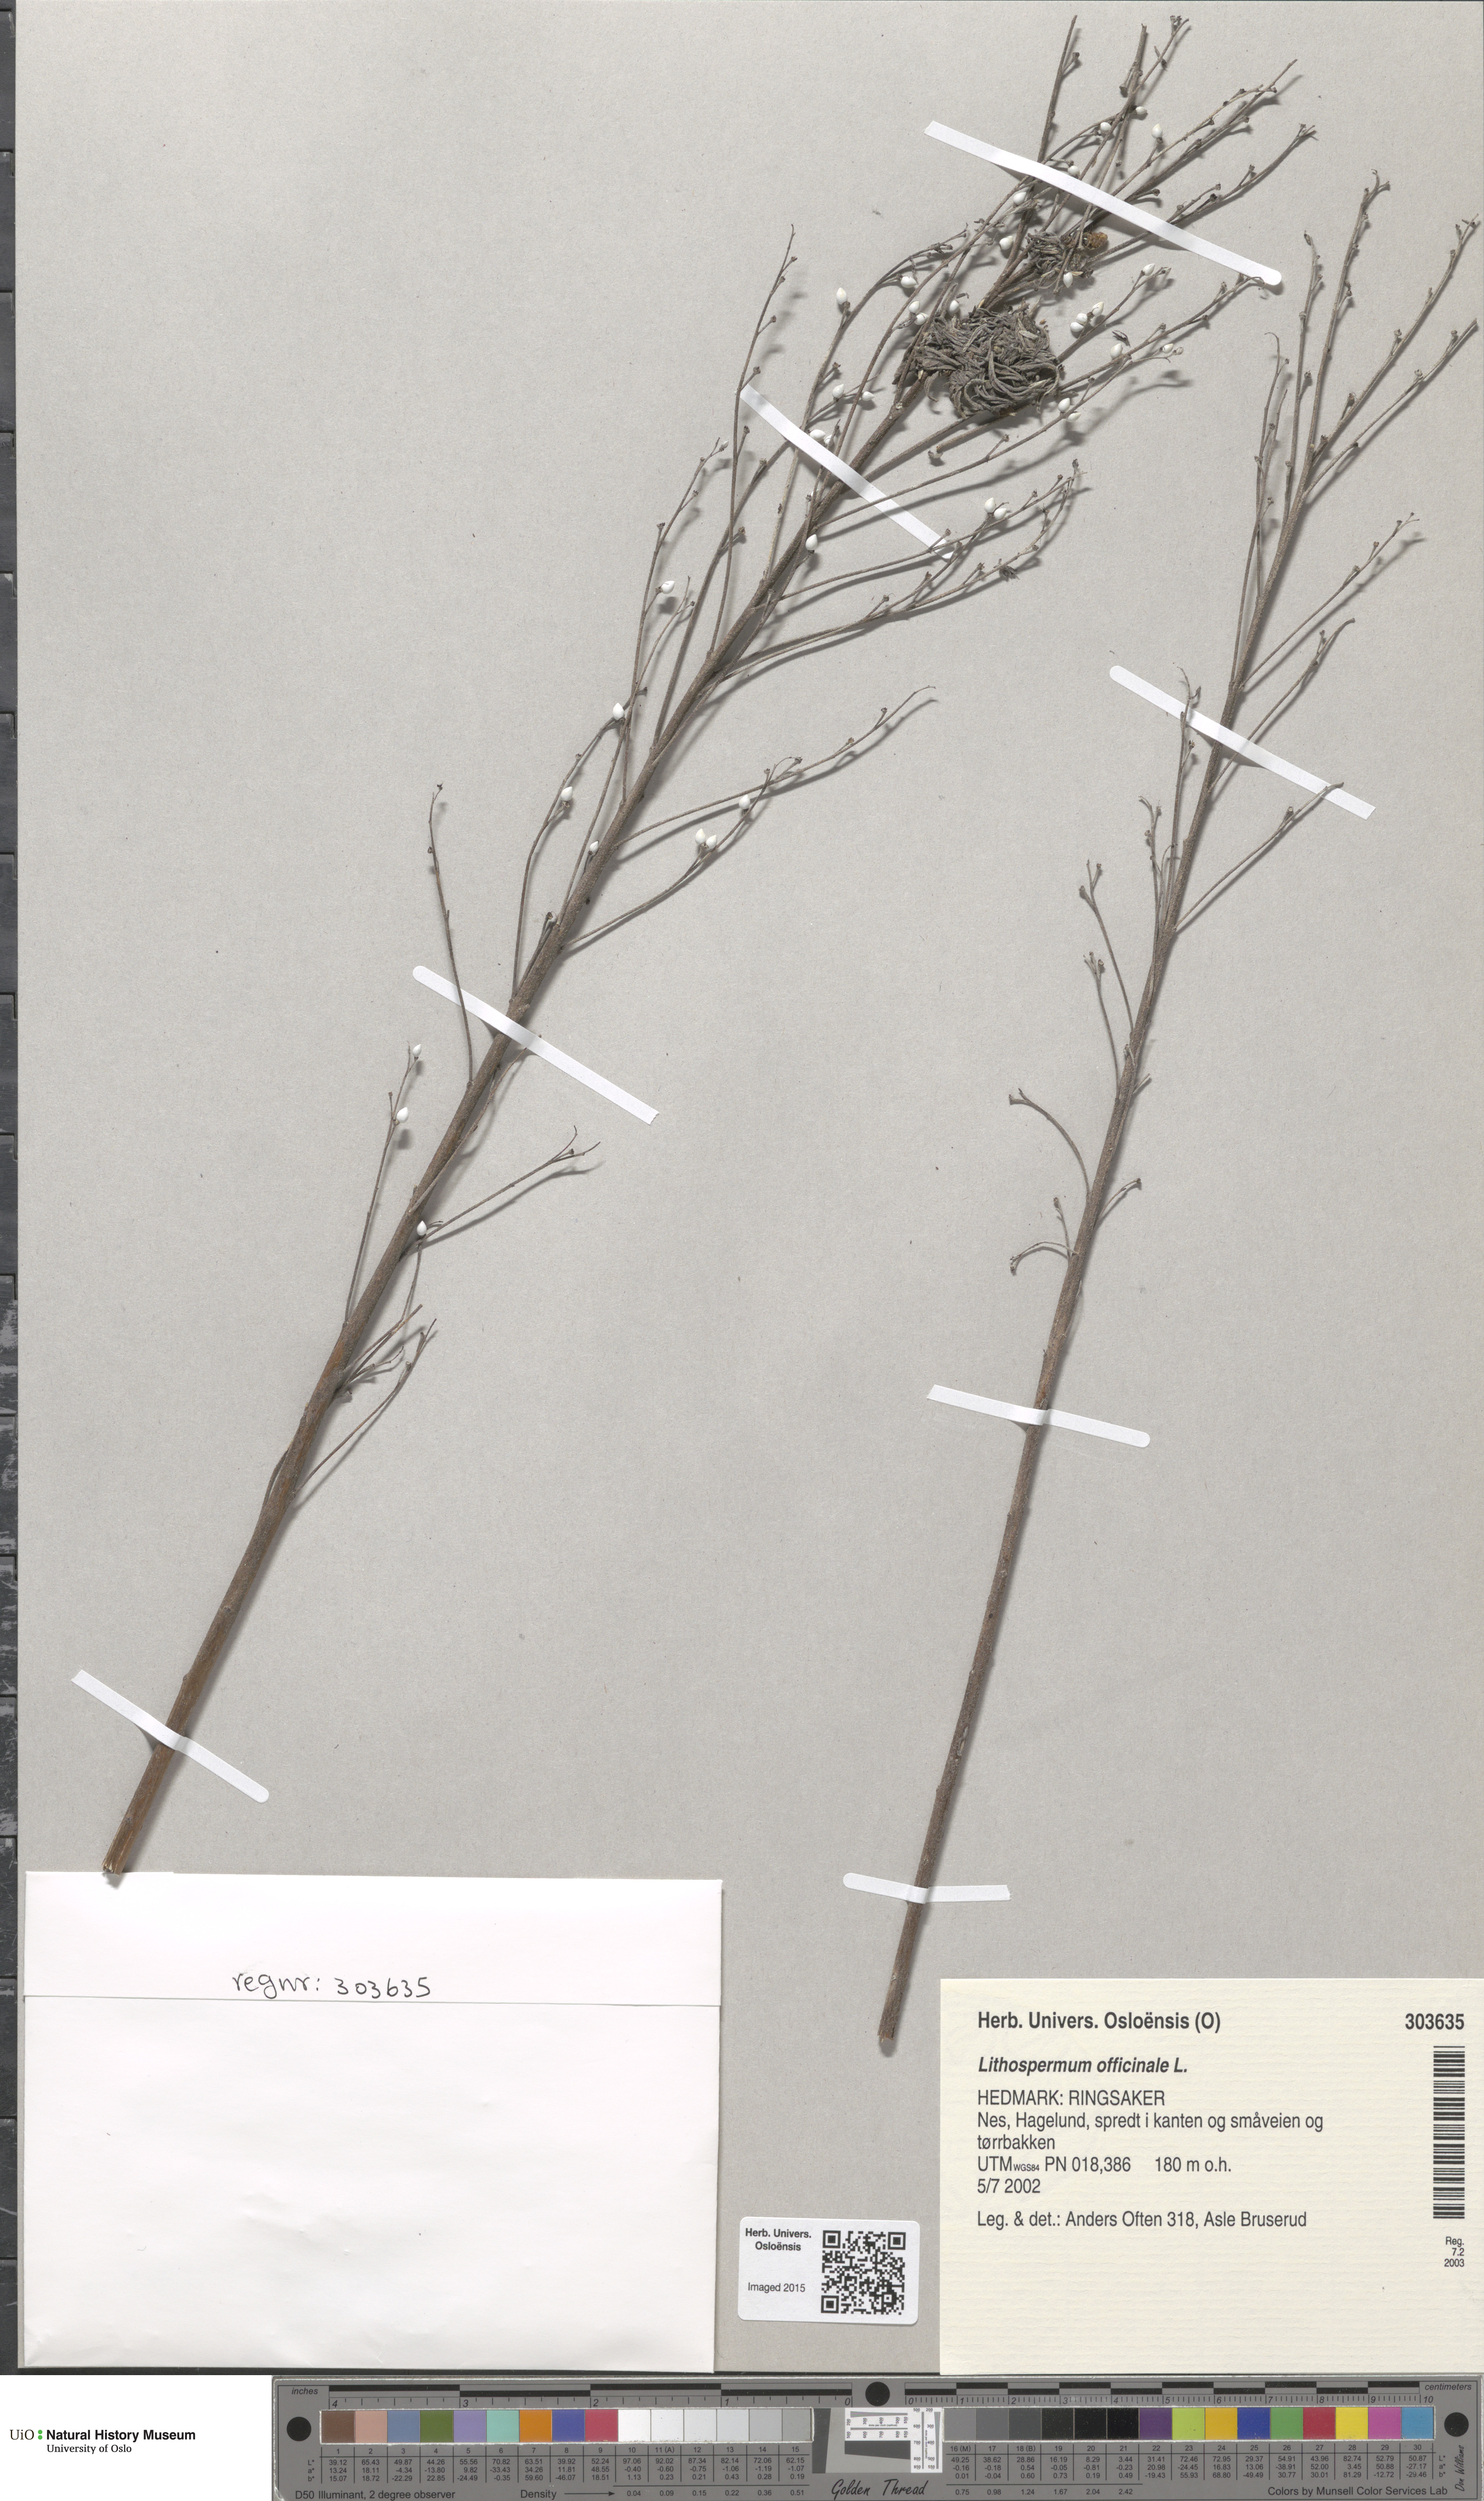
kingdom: Plantae
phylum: Tracheophyta
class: Magnoliopsida
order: Boraginales
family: Boraginaceae
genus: Lithospermum
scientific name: Lithospermum officinale
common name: Common gromwell
